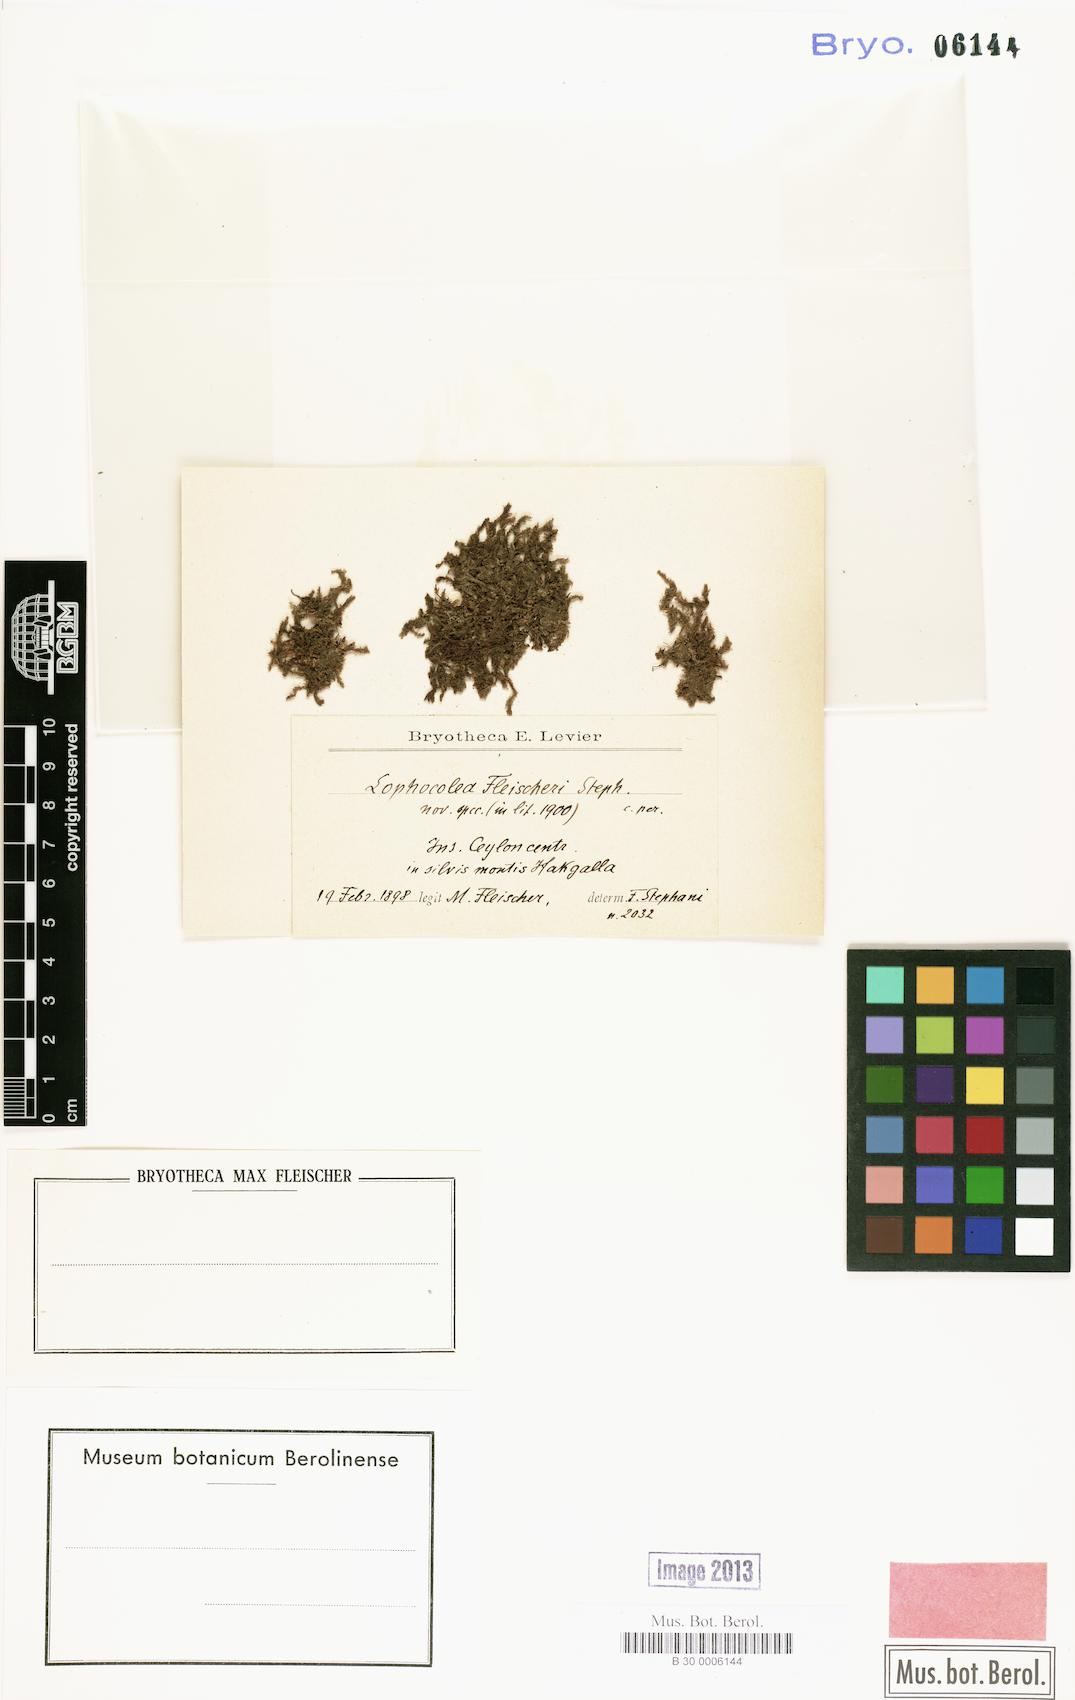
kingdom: Plantae
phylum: Marchantiophyta
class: Jungermanniopsida
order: Jungermanniales
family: Lophocoleaceae
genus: Cryptolophocolea
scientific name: Cryptolophocolea fleischeri
